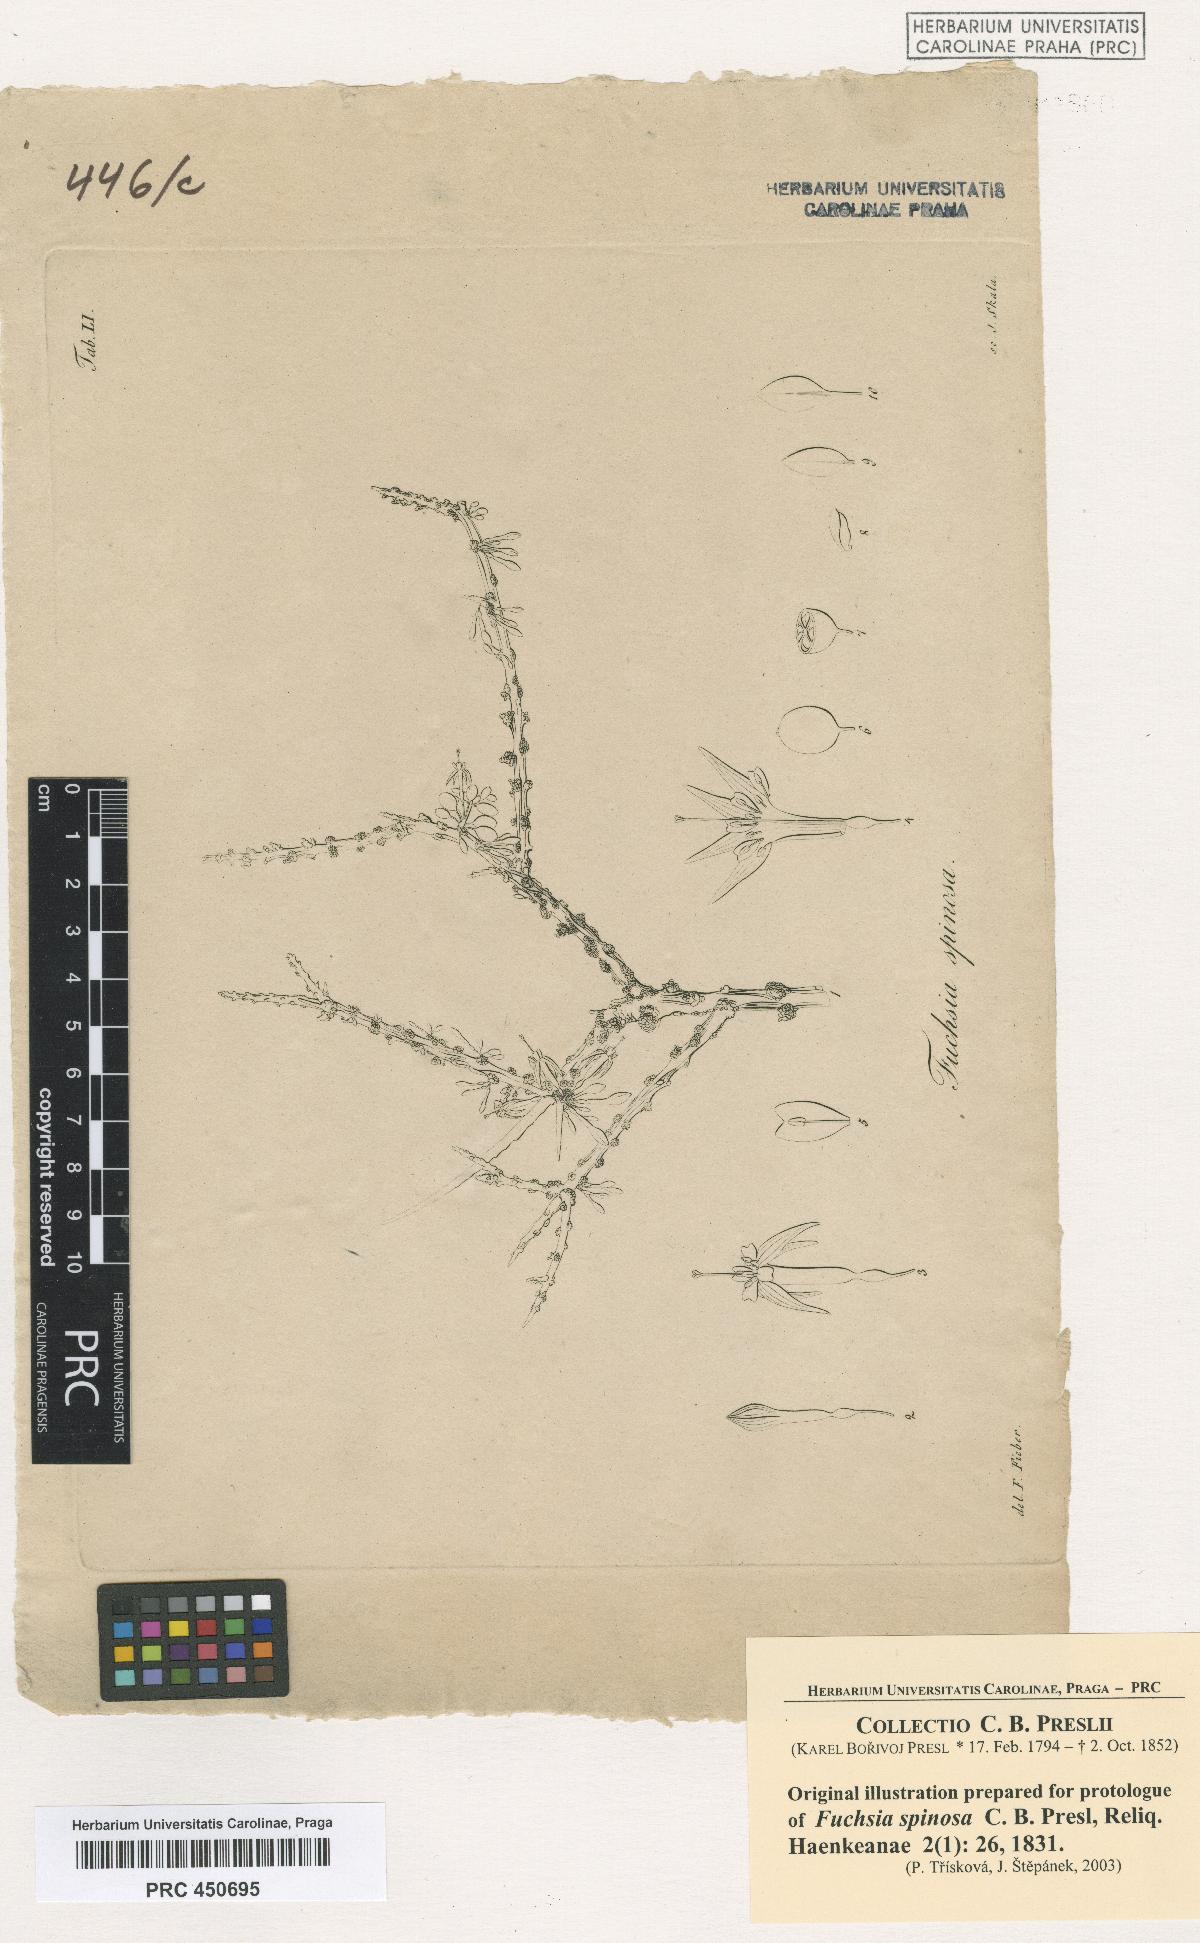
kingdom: Plantae
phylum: Tracheophyta
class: Magnoliopsida
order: Myrtales
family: Onagraceae
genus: Fuchsia
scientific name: Fuchsia lycioides
